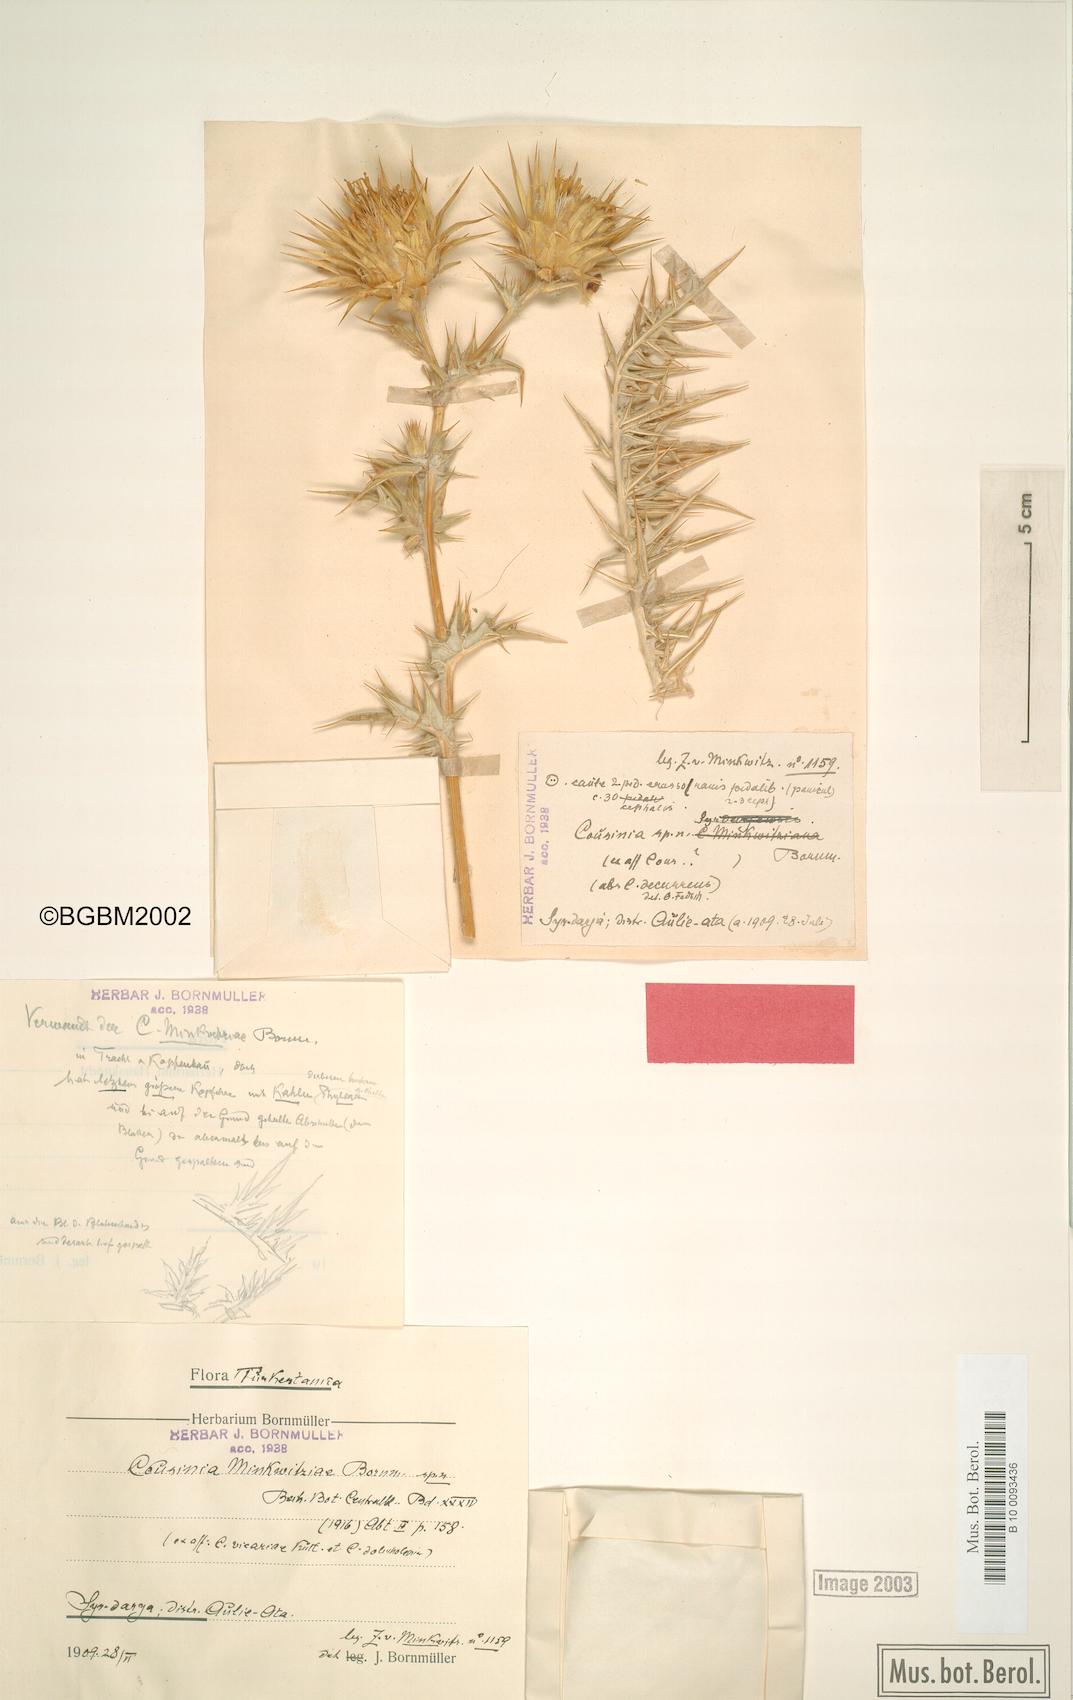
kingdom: Plantae
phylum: Tracheophyta
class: Magnoliopsida
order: Asterales
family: Asteraceae
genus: Cousinia
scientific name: Cousinia minkwitziae
